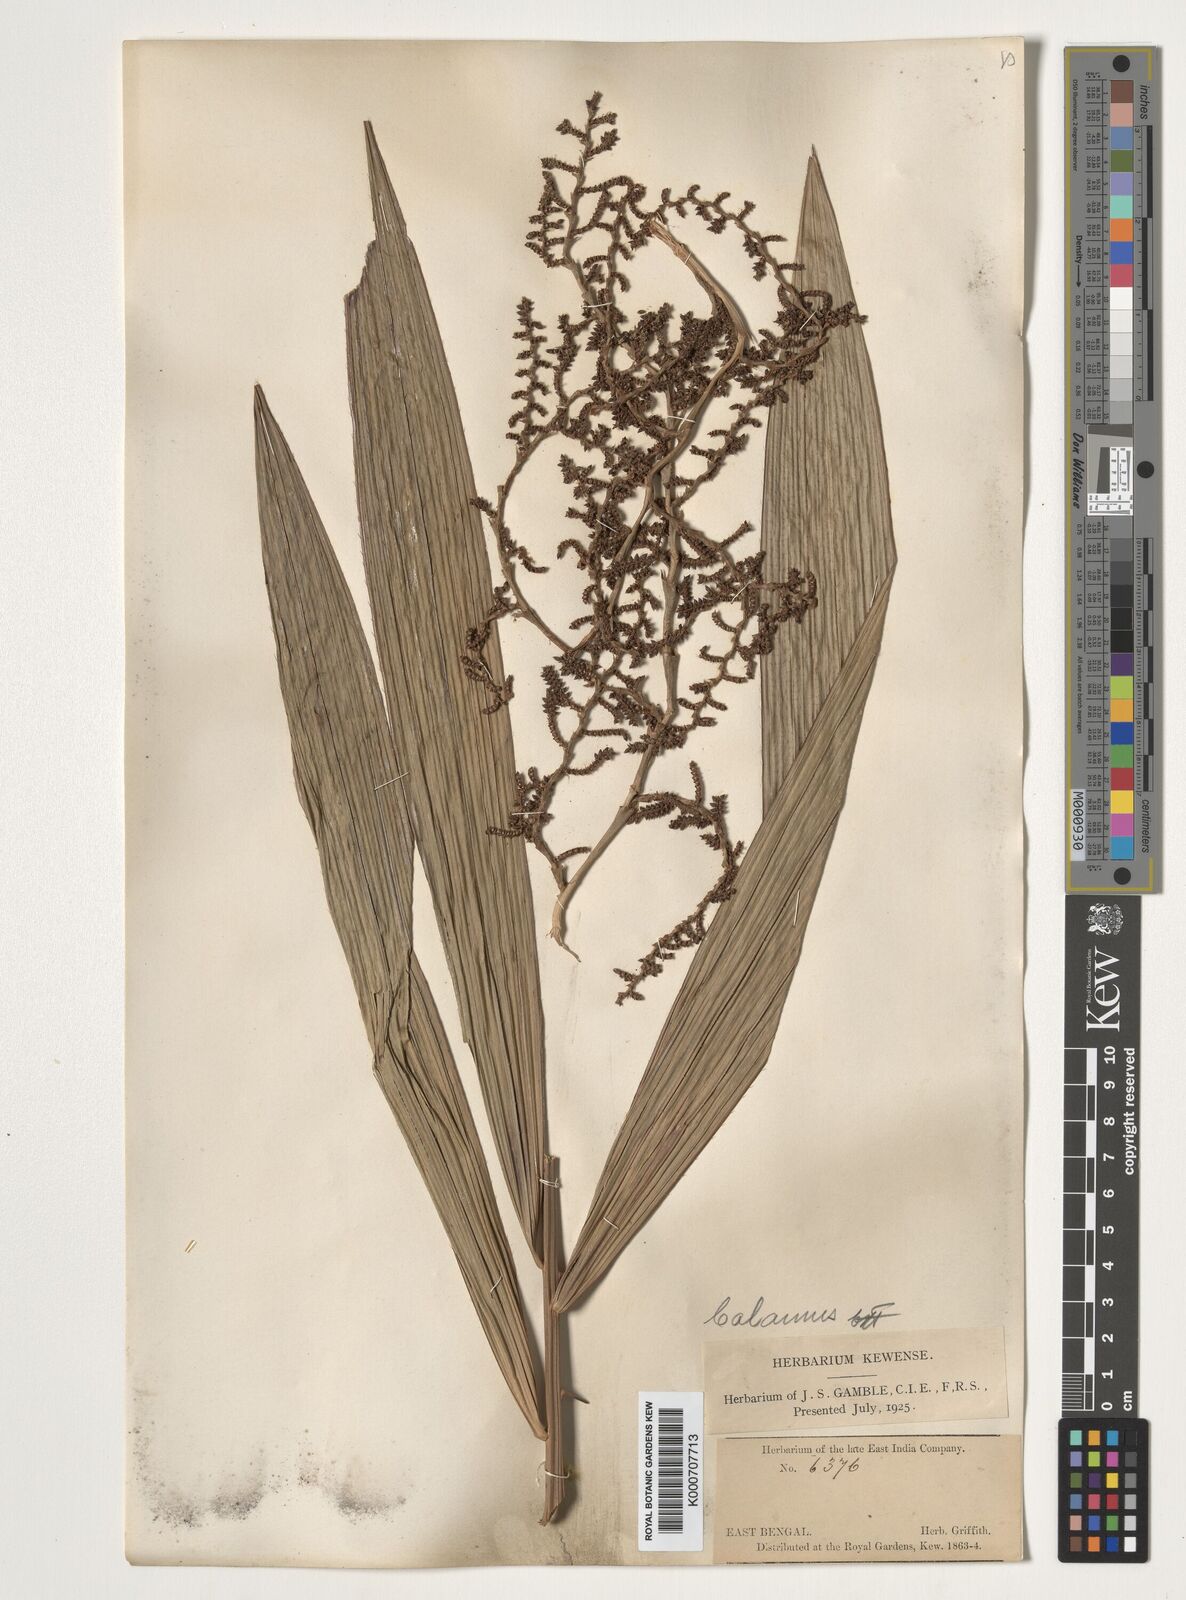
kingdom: Plantae
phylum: Tracheophyta
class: Liliopsida
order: Arecales
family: Arecaceae
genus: Calamus
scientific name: Calamus
